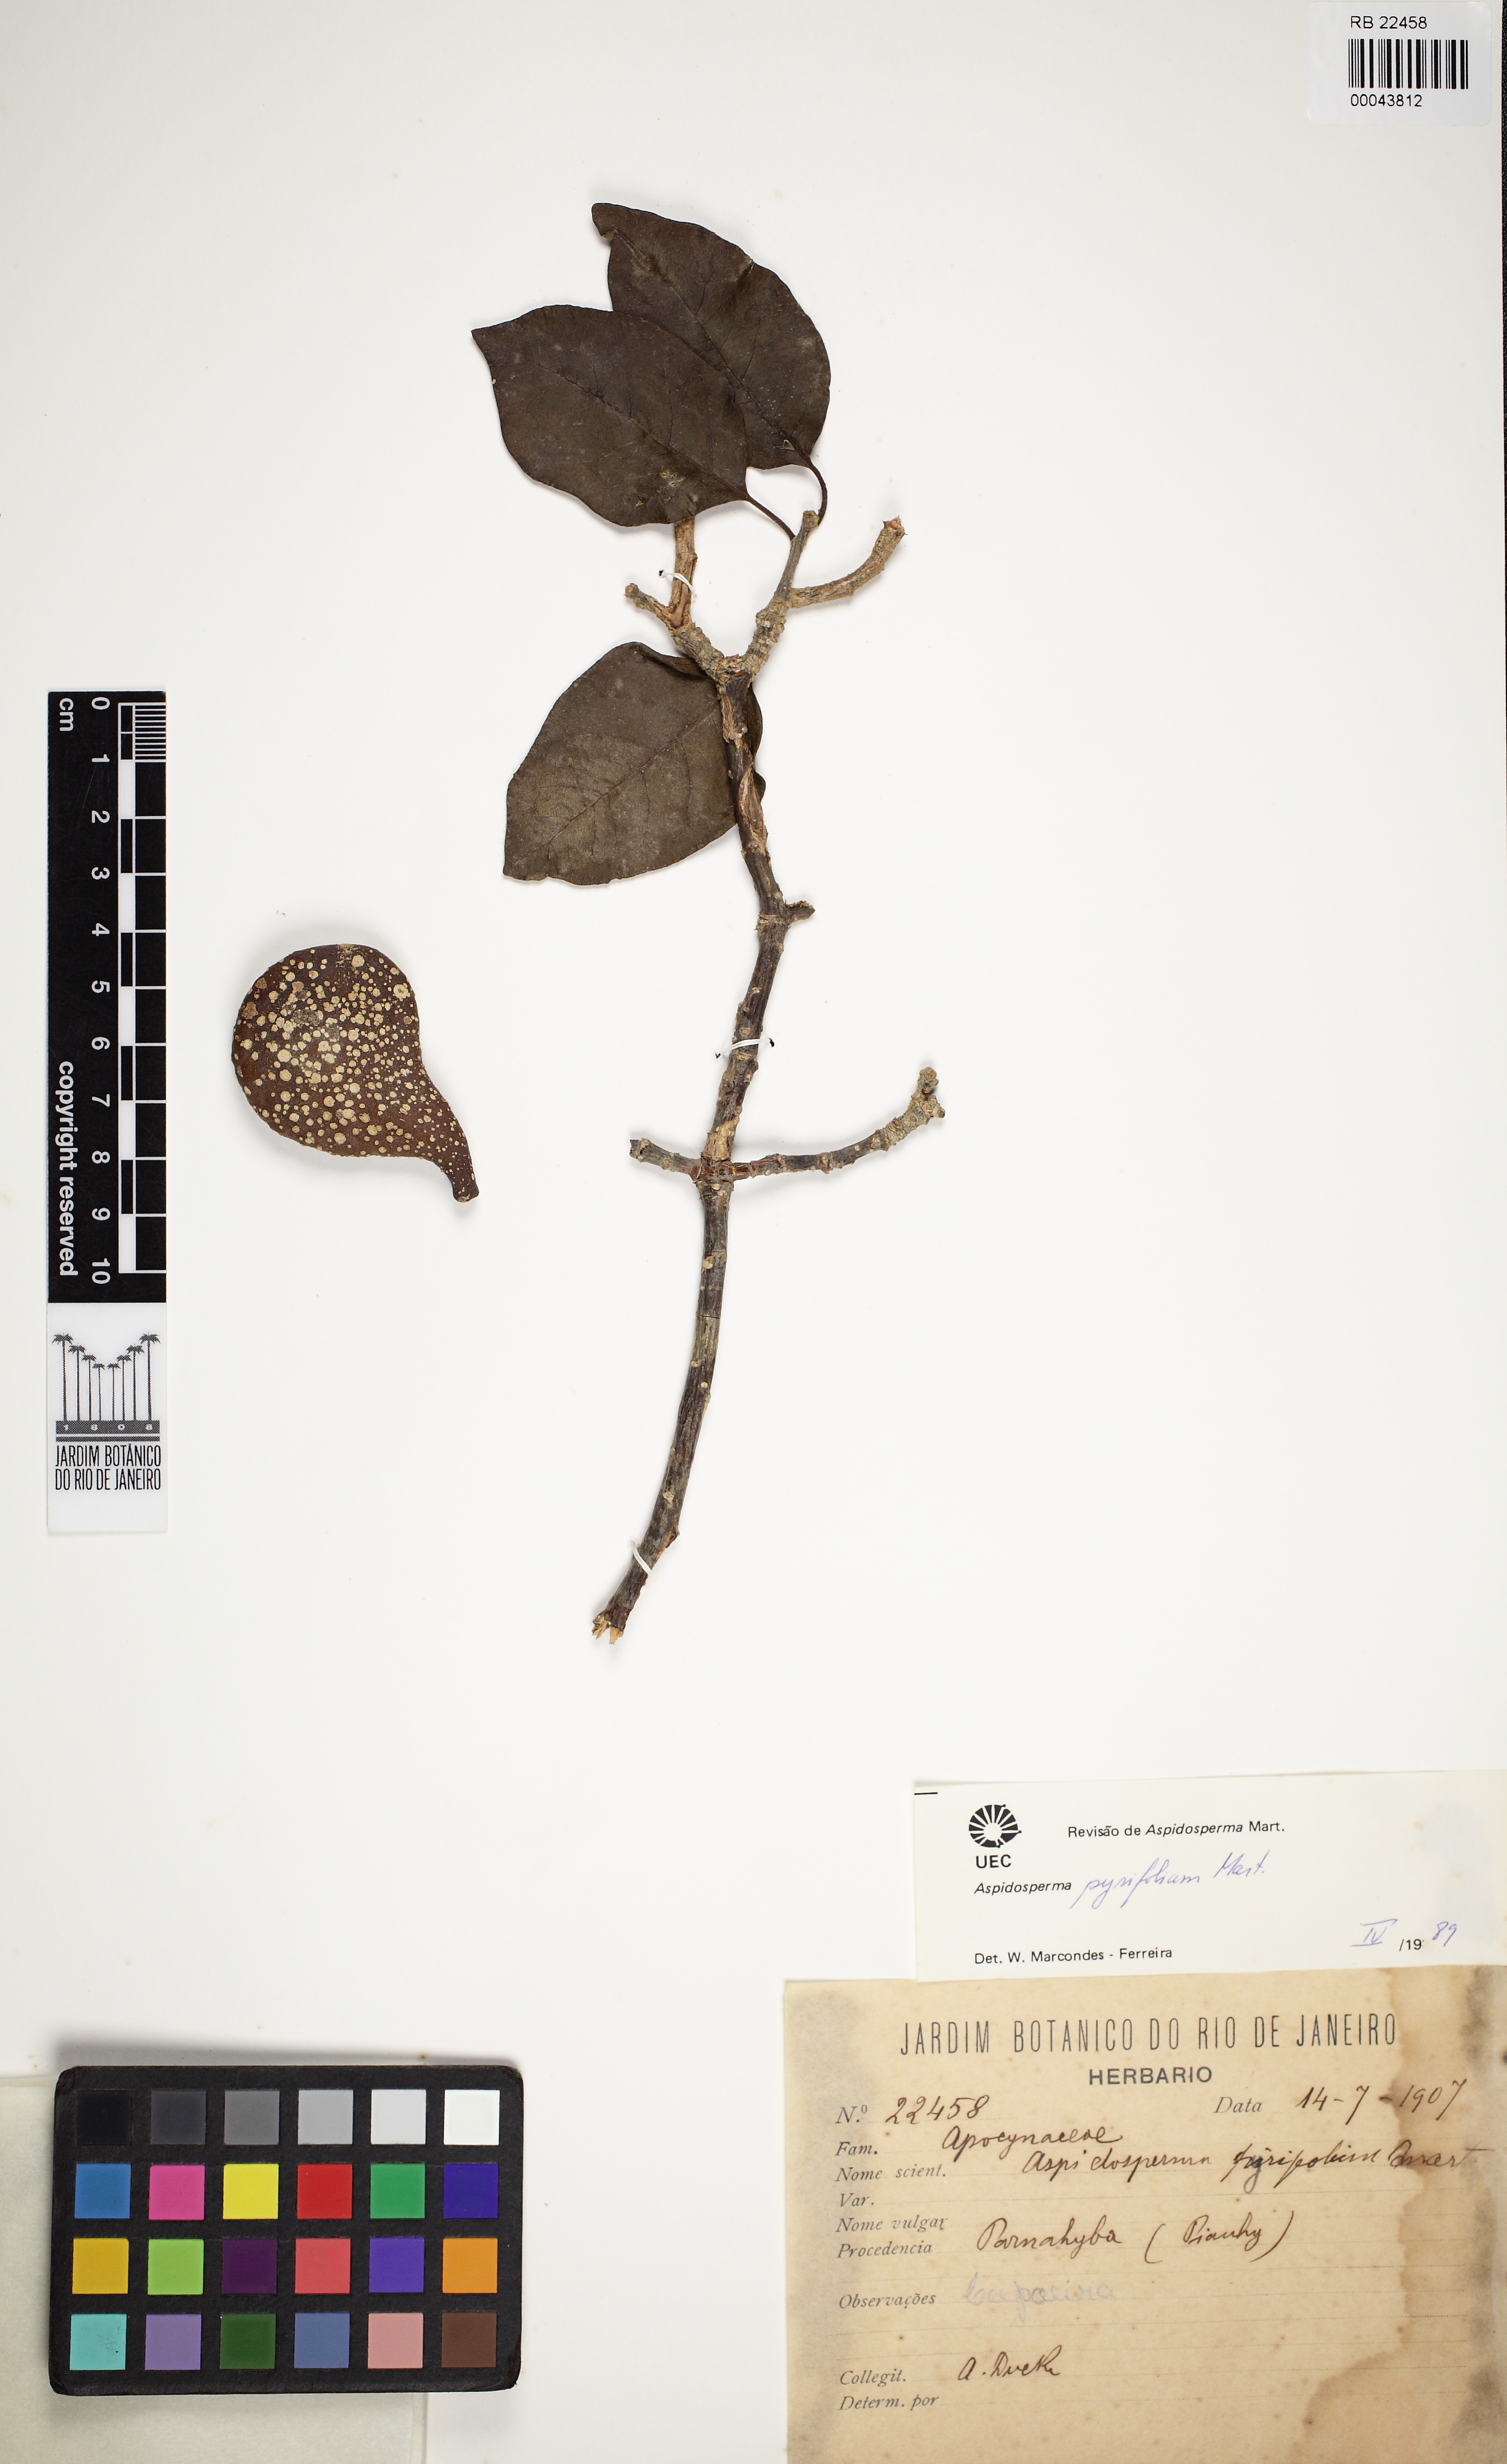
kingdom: Plantae
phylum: Tracheophyta
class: Magnoliopsida
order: Gentianales
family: Apocynaceae
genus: Aspidosperma
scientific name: Aspidosperma pyrifolium
